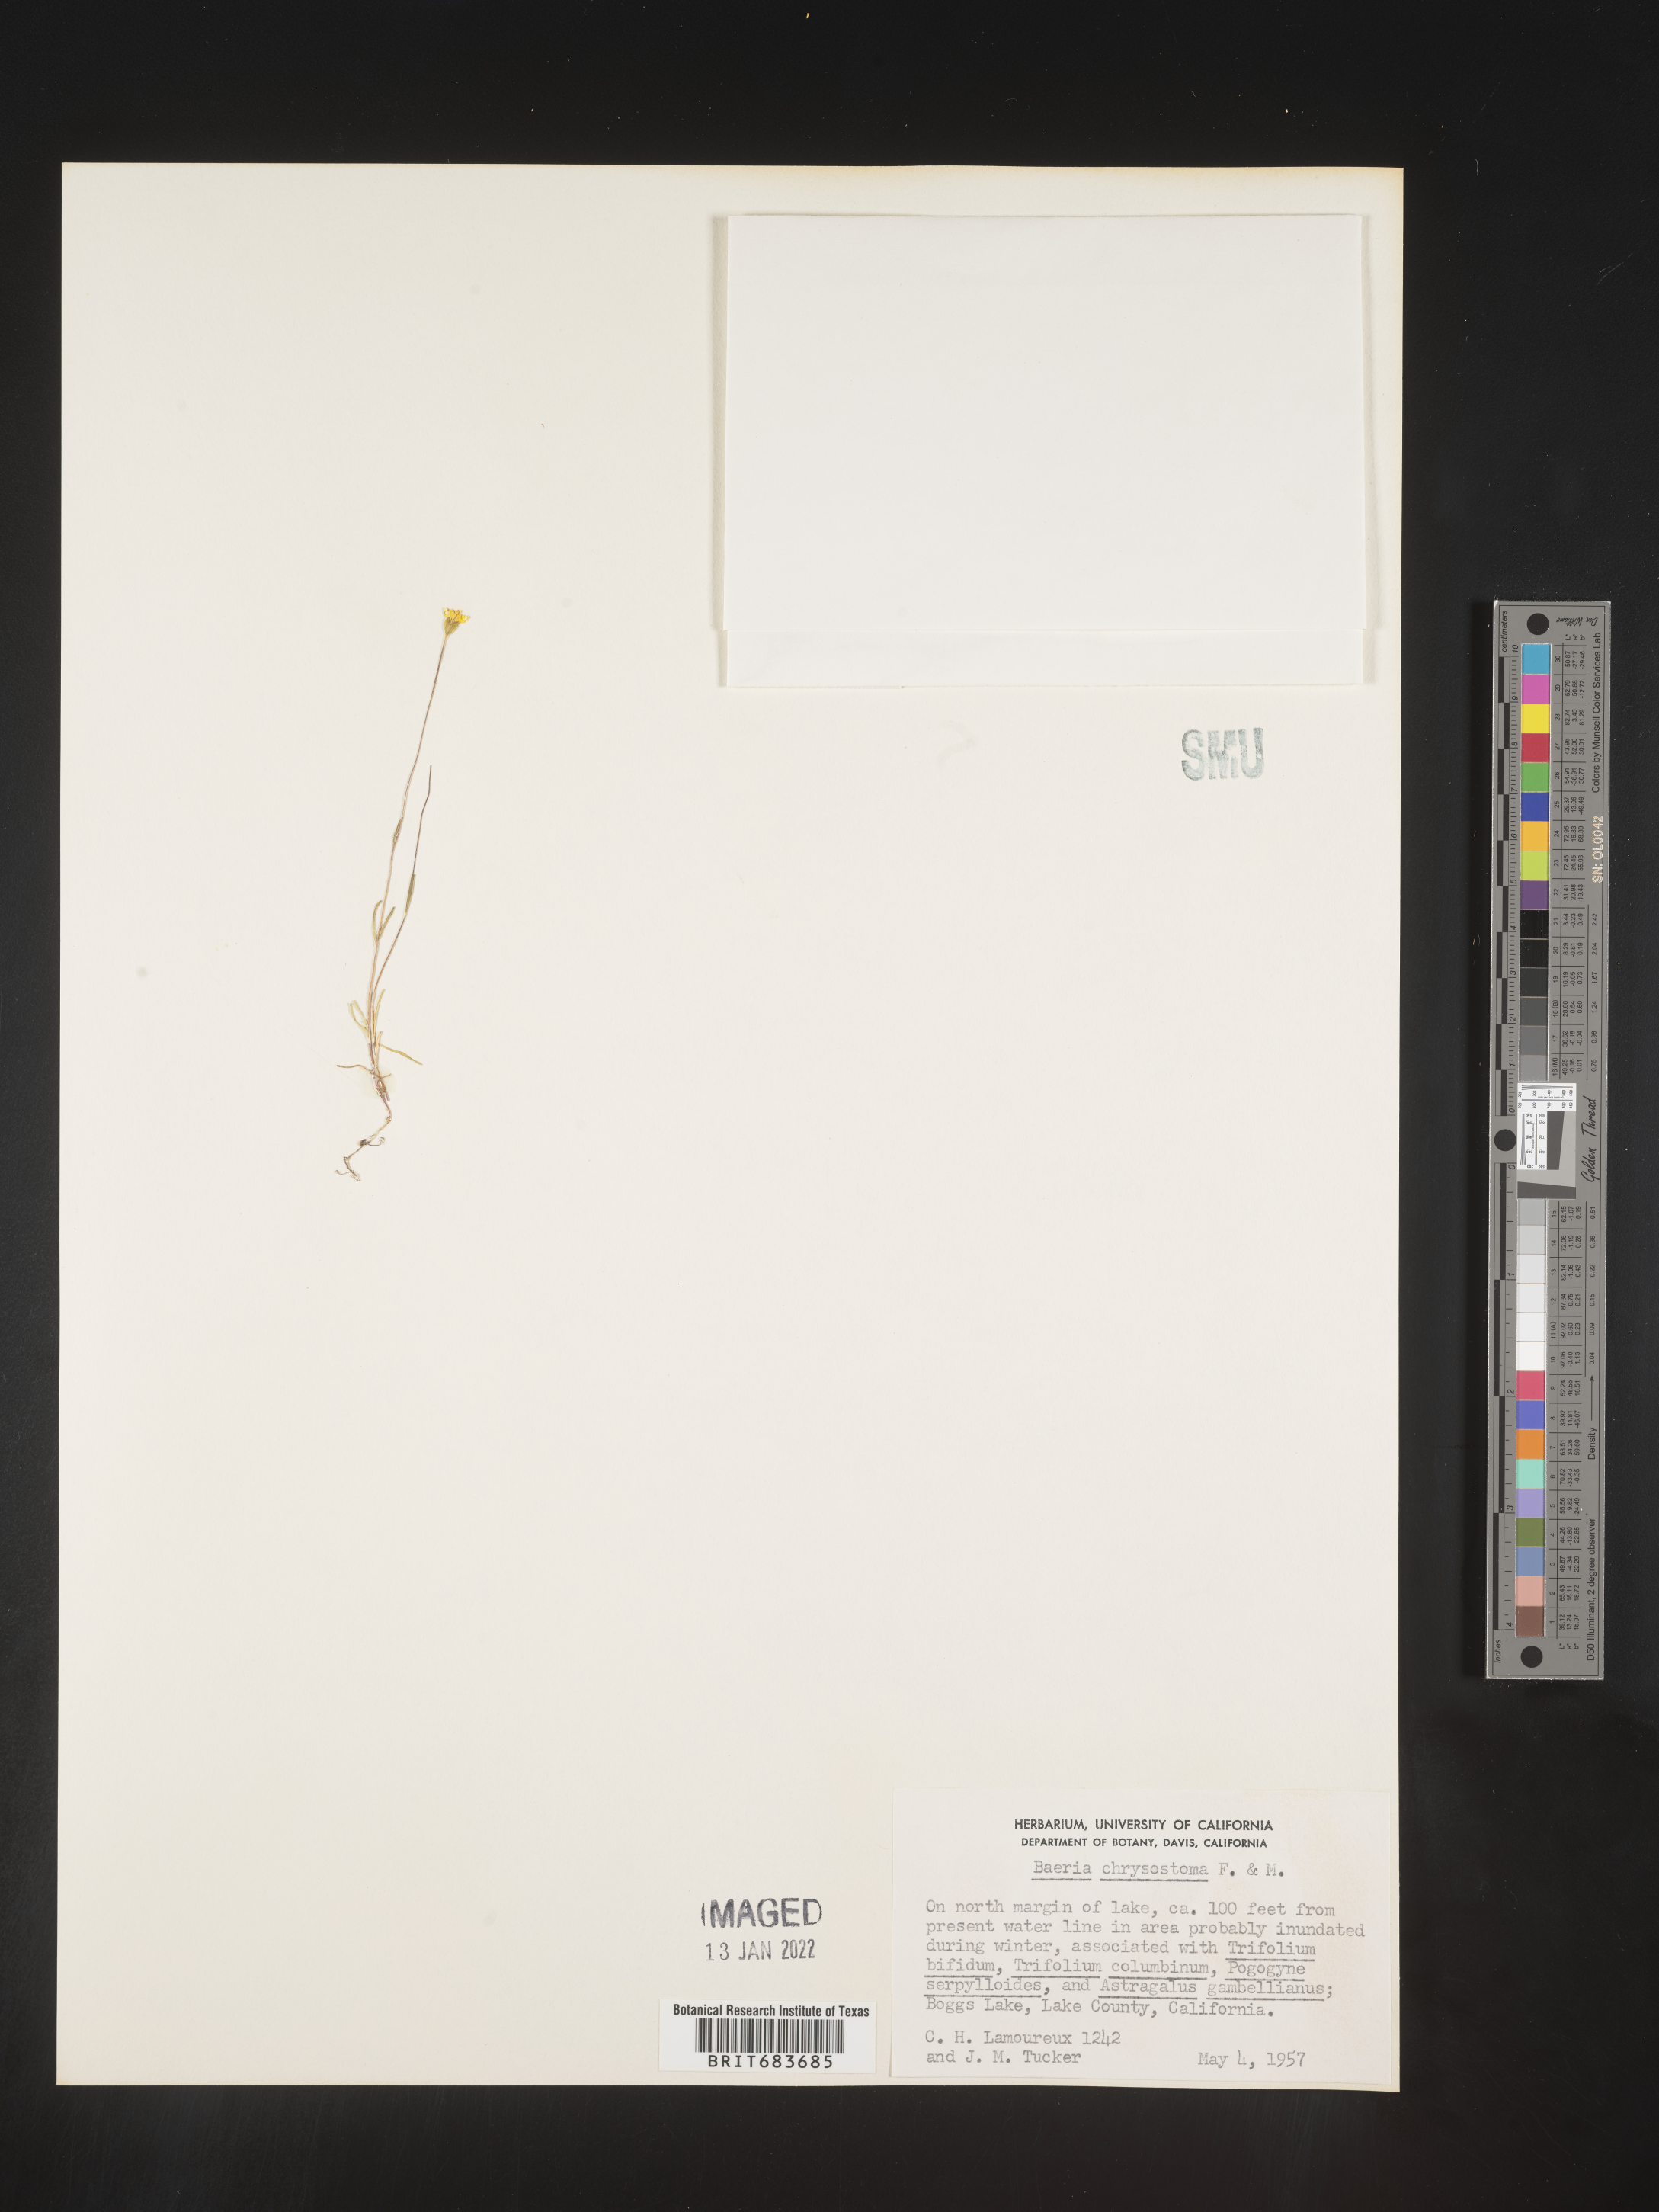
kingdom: Plantae
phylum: Tracheophyta
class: Magnoliopsida
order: Asterales
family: Asteraceae
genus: Lasthenia
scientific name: Lasthenia
